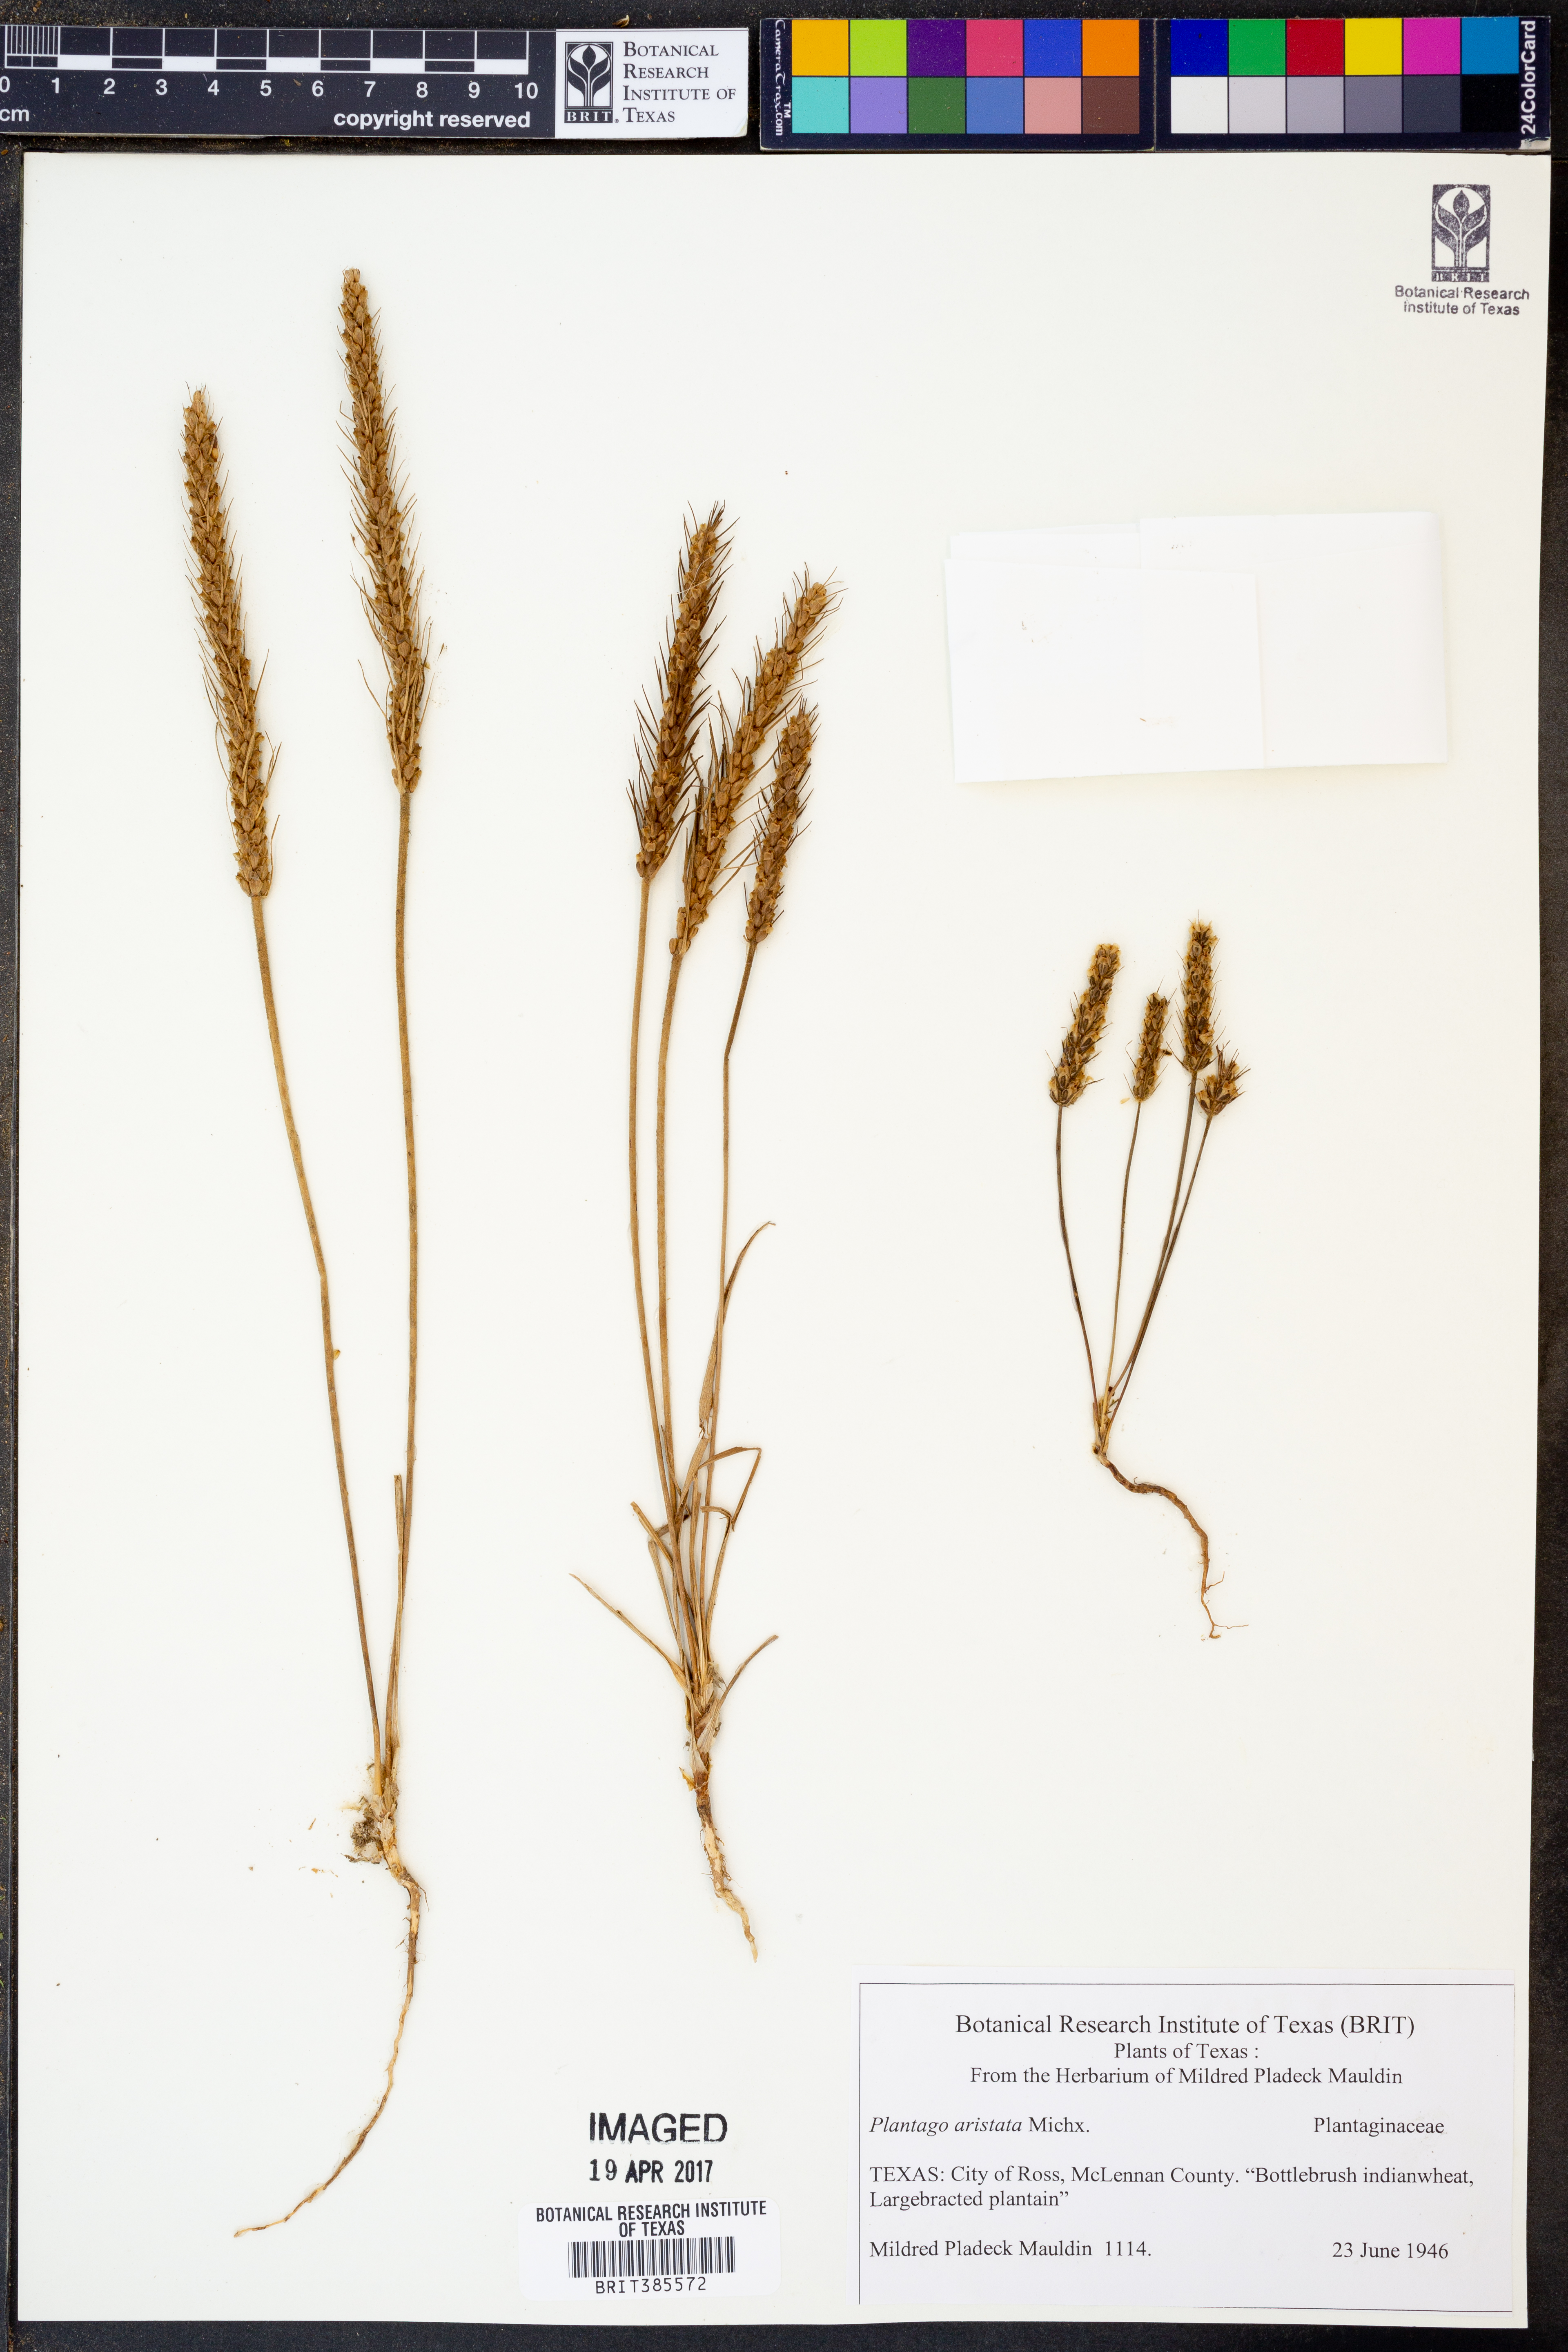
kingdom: Plantae
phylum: Tracheophyta
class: Magnoliopsida
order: Lamiales
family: Plantaginaceae
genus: Plantago
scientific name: Plantago aristata
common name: Bracted plantain
